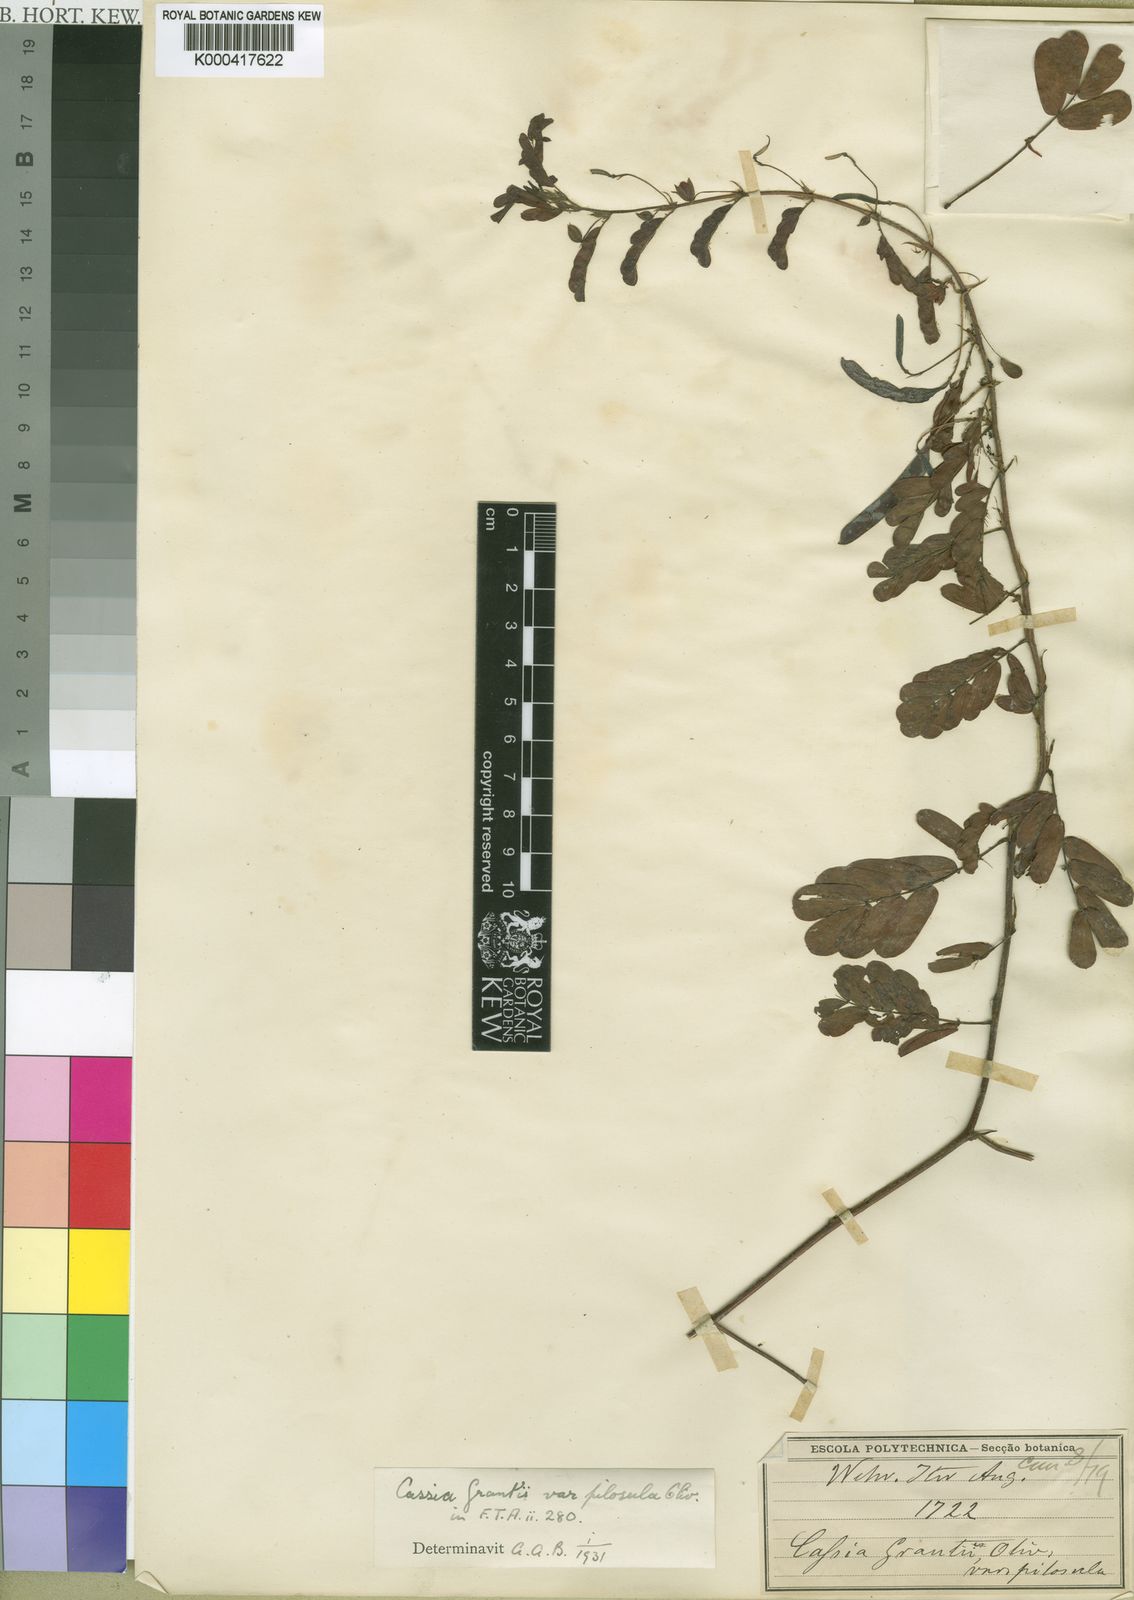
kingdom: Plantae
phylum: Tracheophyta
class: Magnoliopsida
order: Fabales
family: Fabaceae
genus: Chamaecrista
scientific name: Chamaecrista grantii
